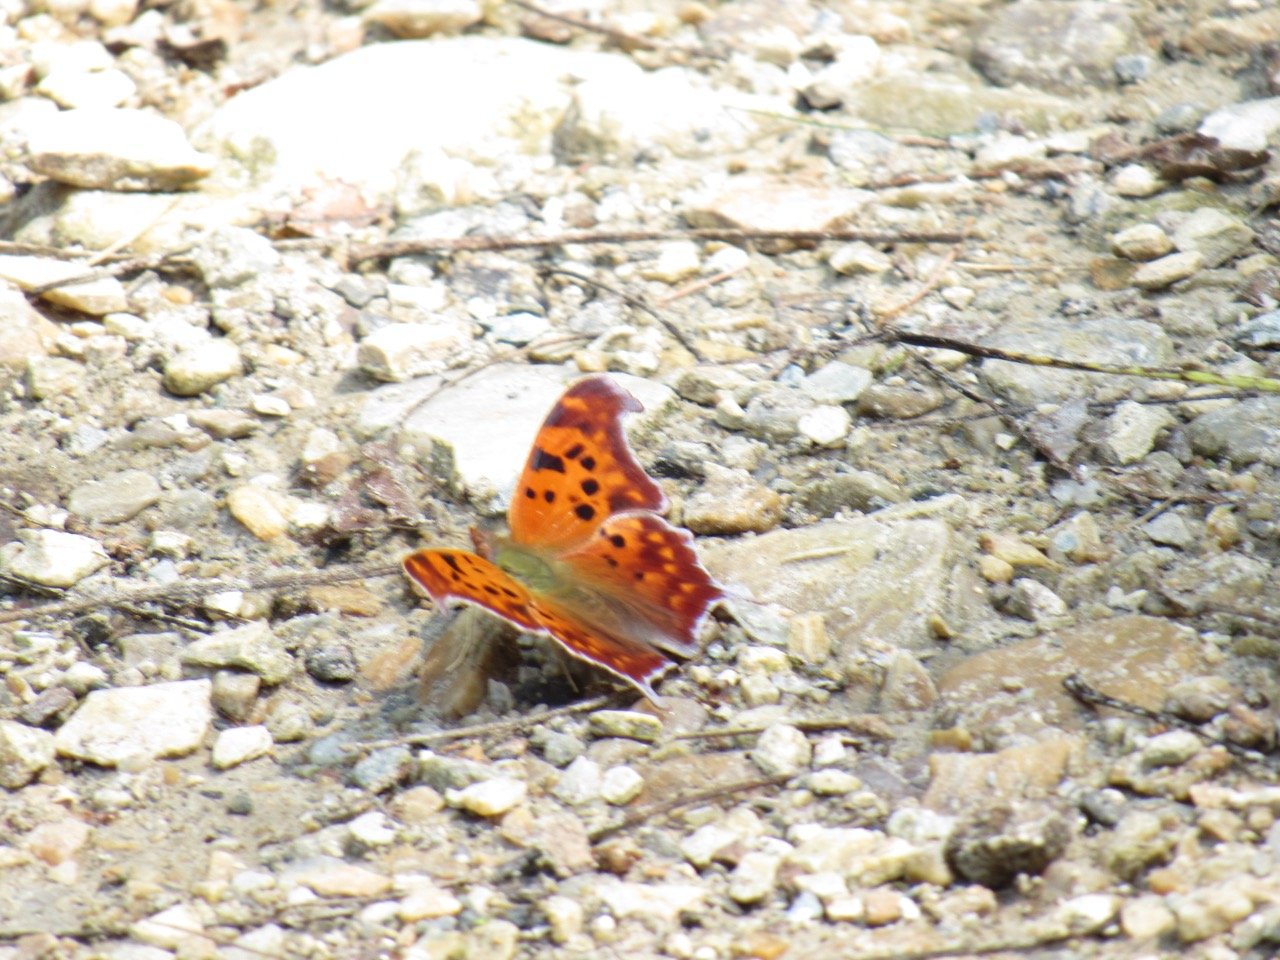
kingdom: Animalia
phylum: Arthropoda
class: Insecta
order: Lepidoptera
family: Nymphalidae
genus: Polygonia
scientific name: Polygonia interrogationis
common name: Question Mark
